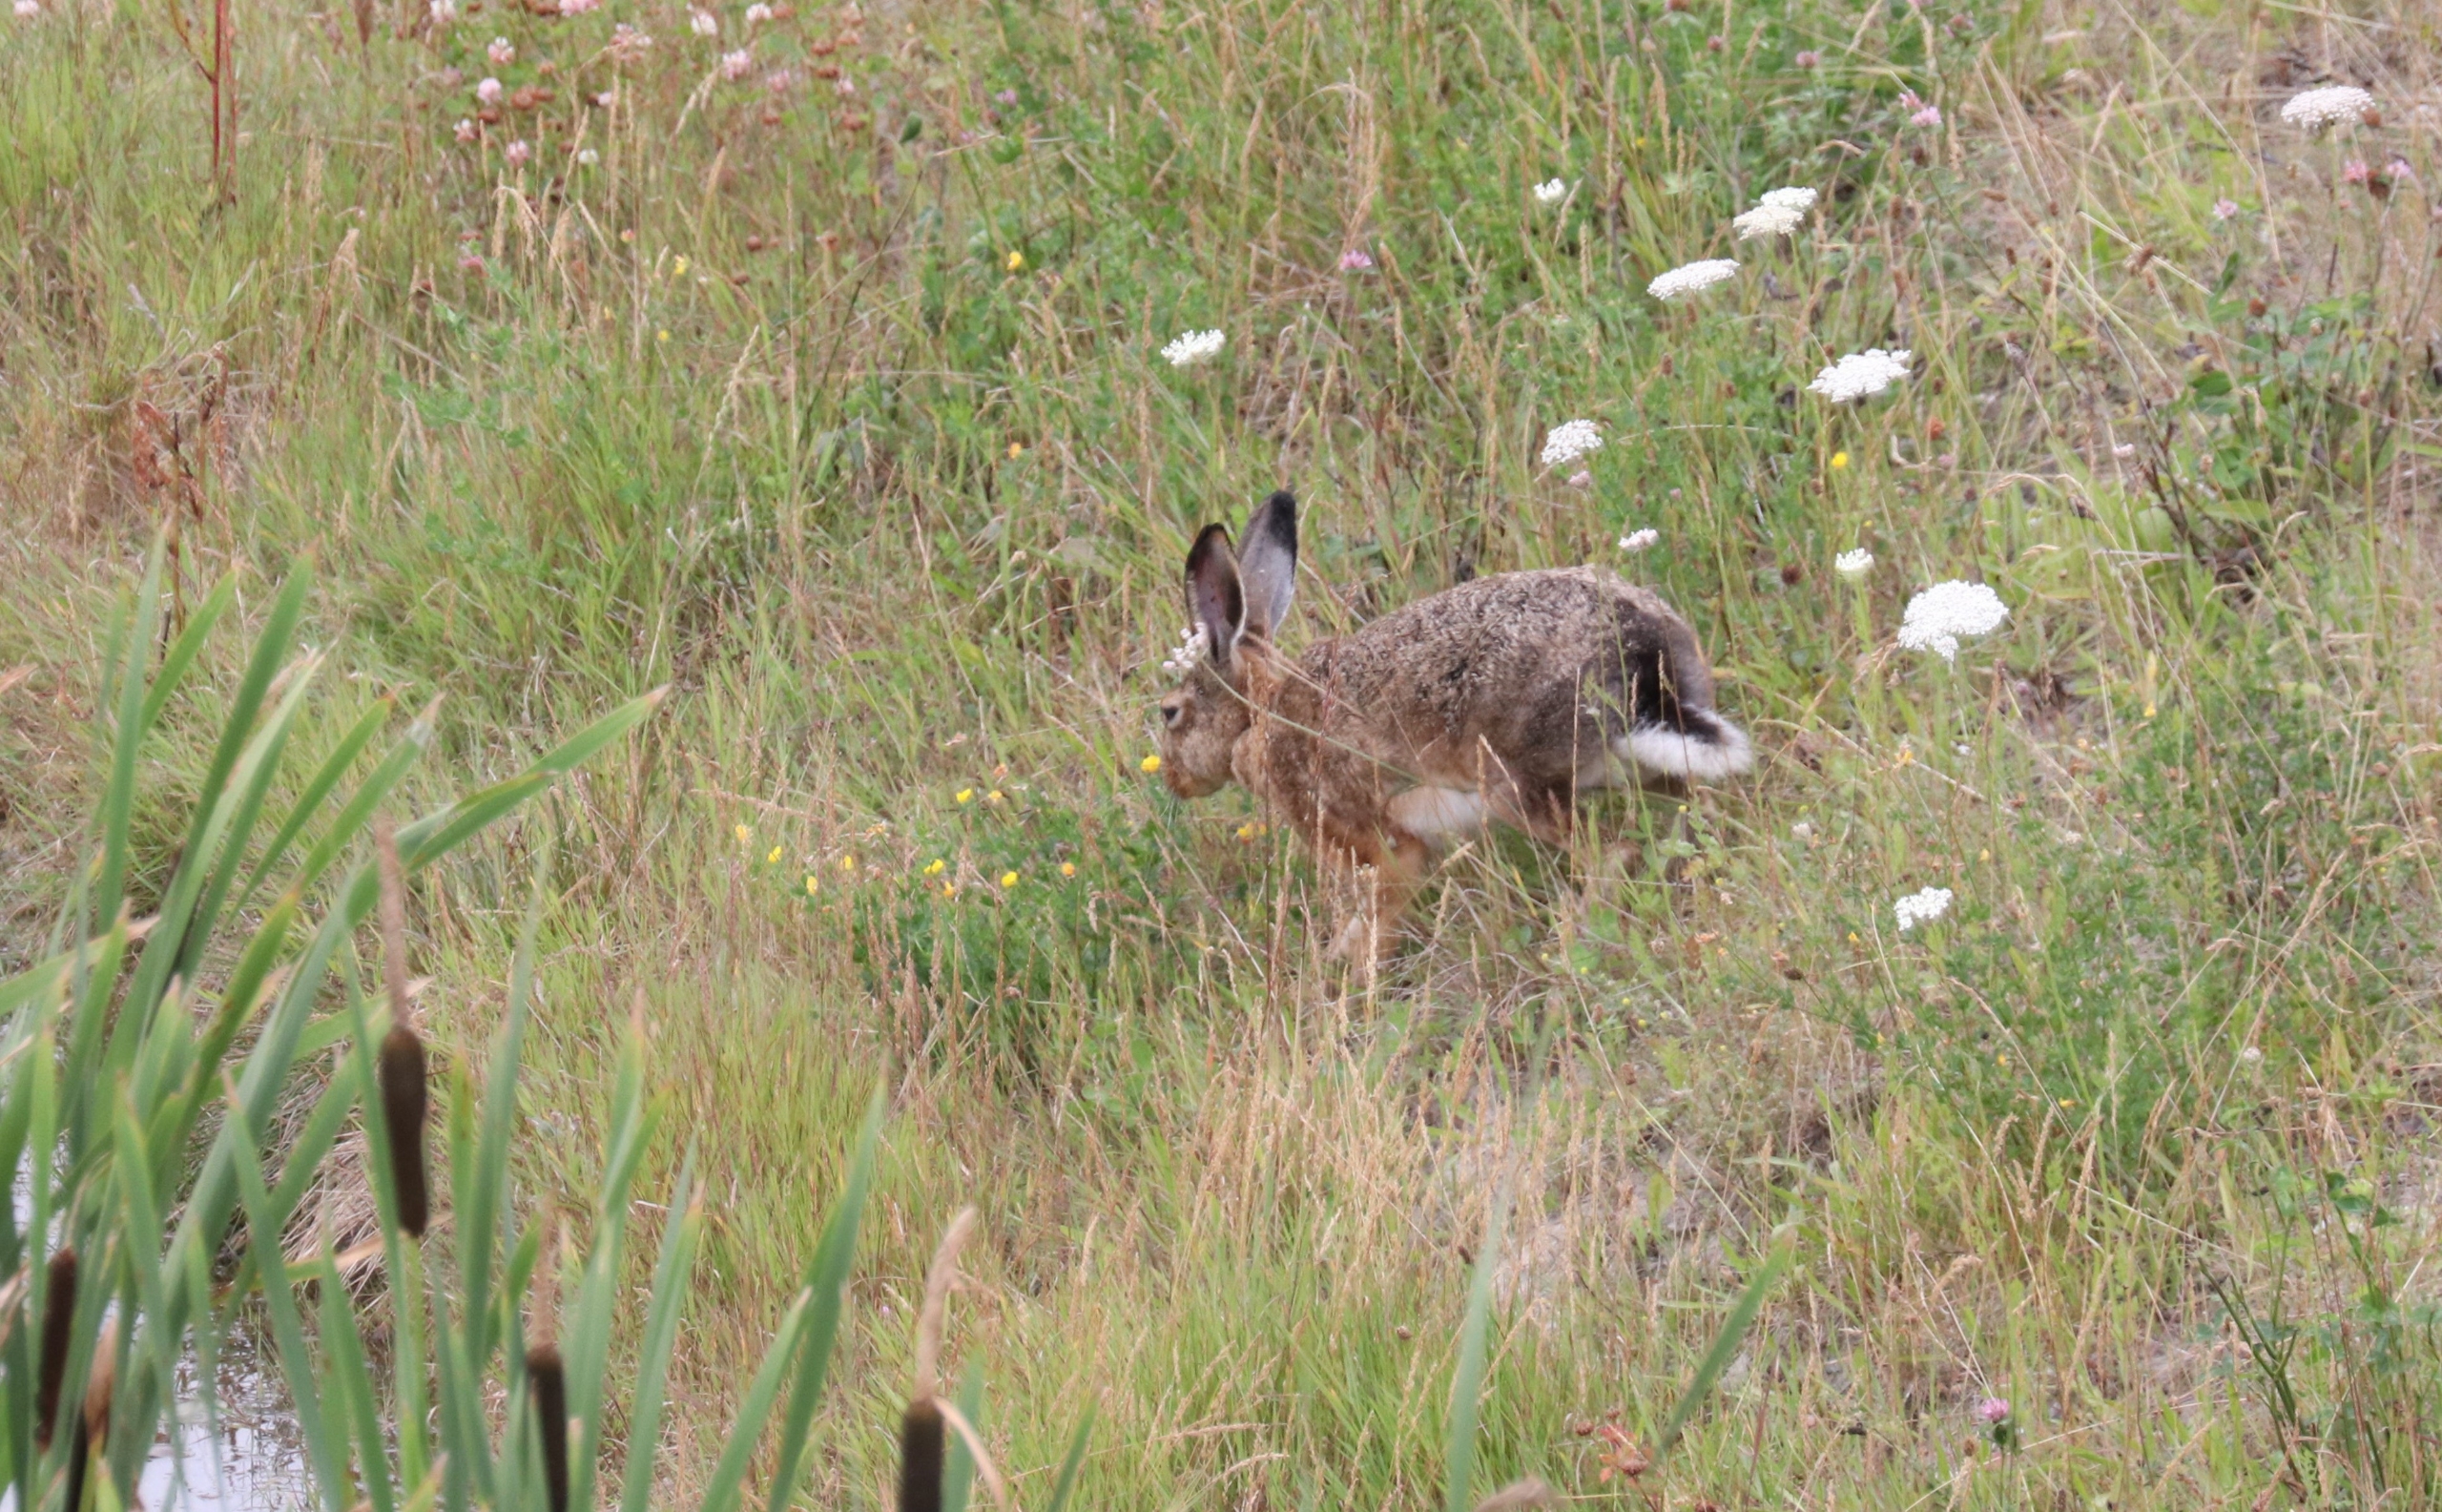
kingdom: Animalia
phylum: Chordata
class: Mammalia
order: Lagomorpha
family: Leporidae
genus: Lepus
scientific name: Lepus europaeus
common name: Hare
